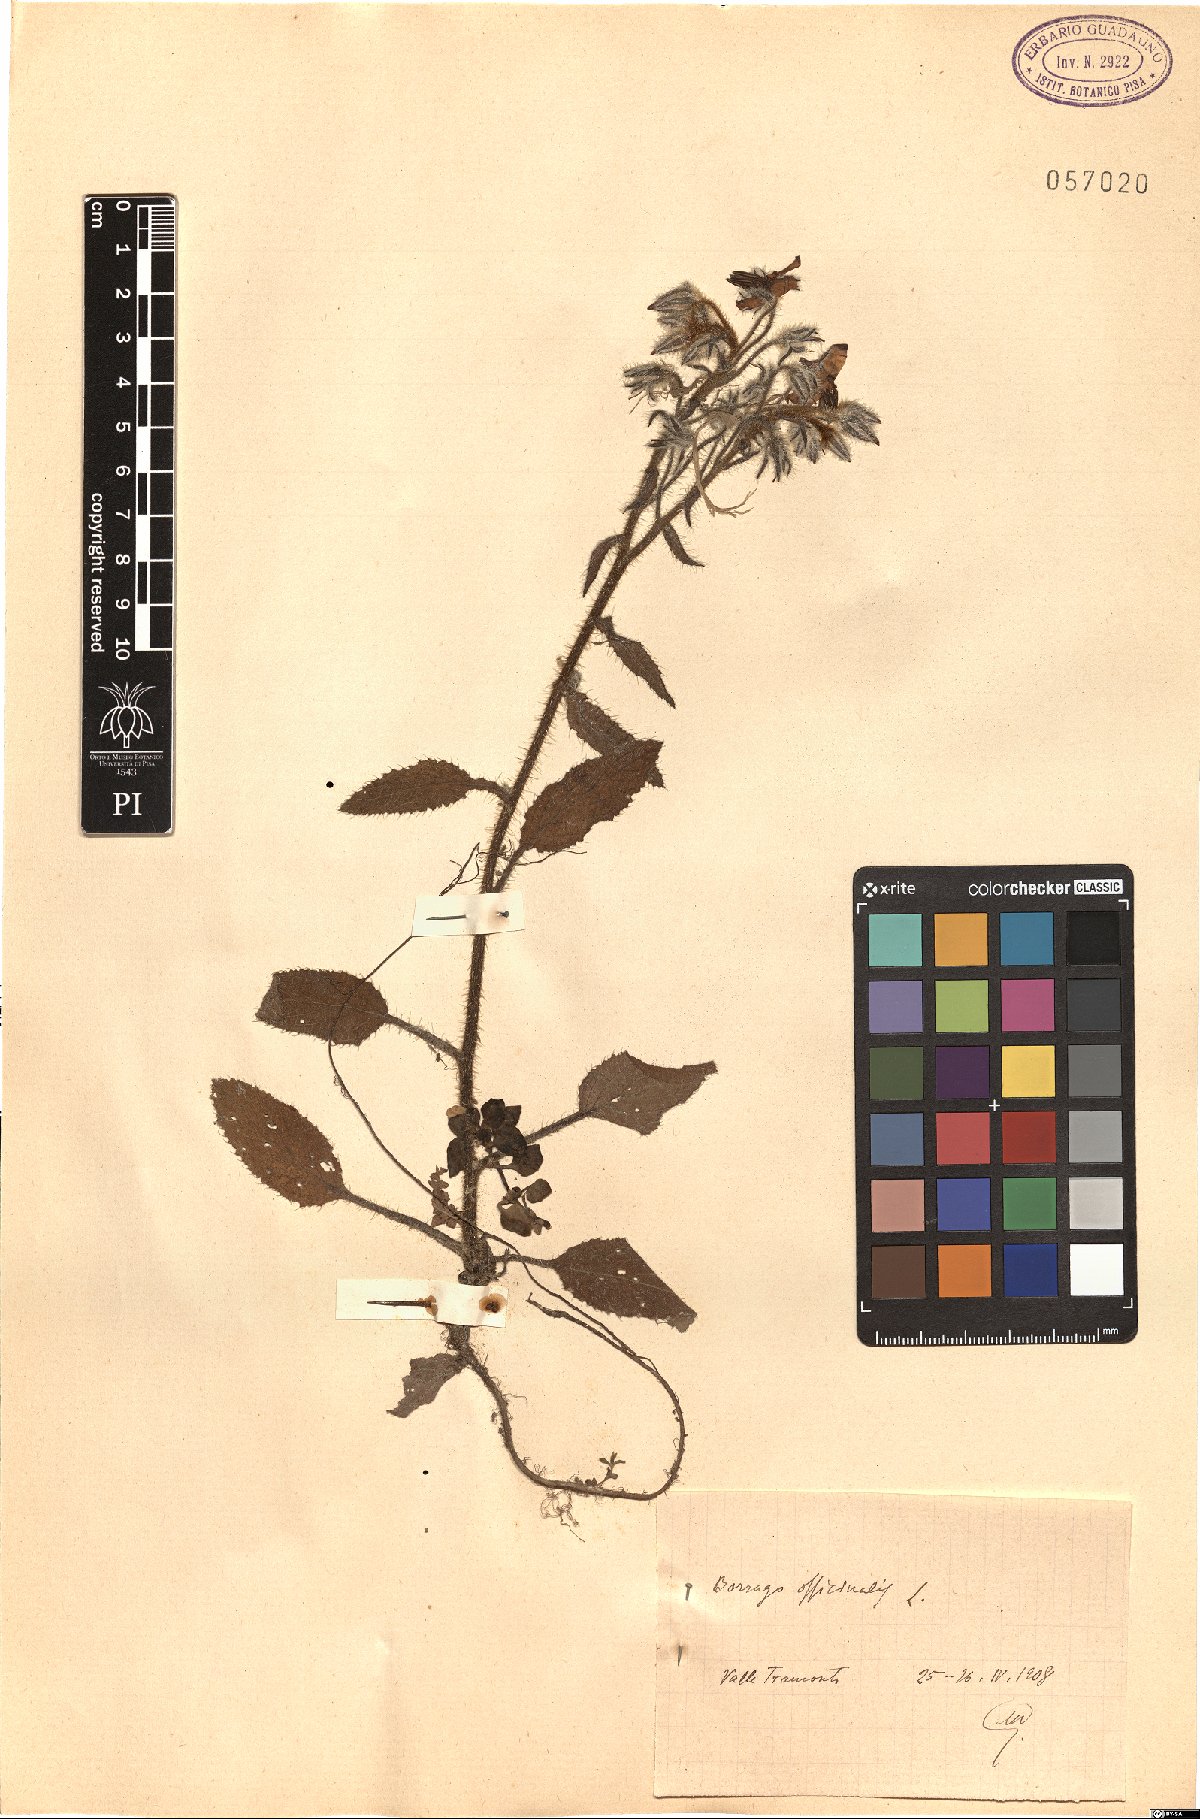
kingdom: Plantae
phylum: Tracheophyta
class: Magnoliopsida
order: Boraginales
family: Boraginaceae
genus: Borago
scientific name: Borago officinalis
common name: Borage
